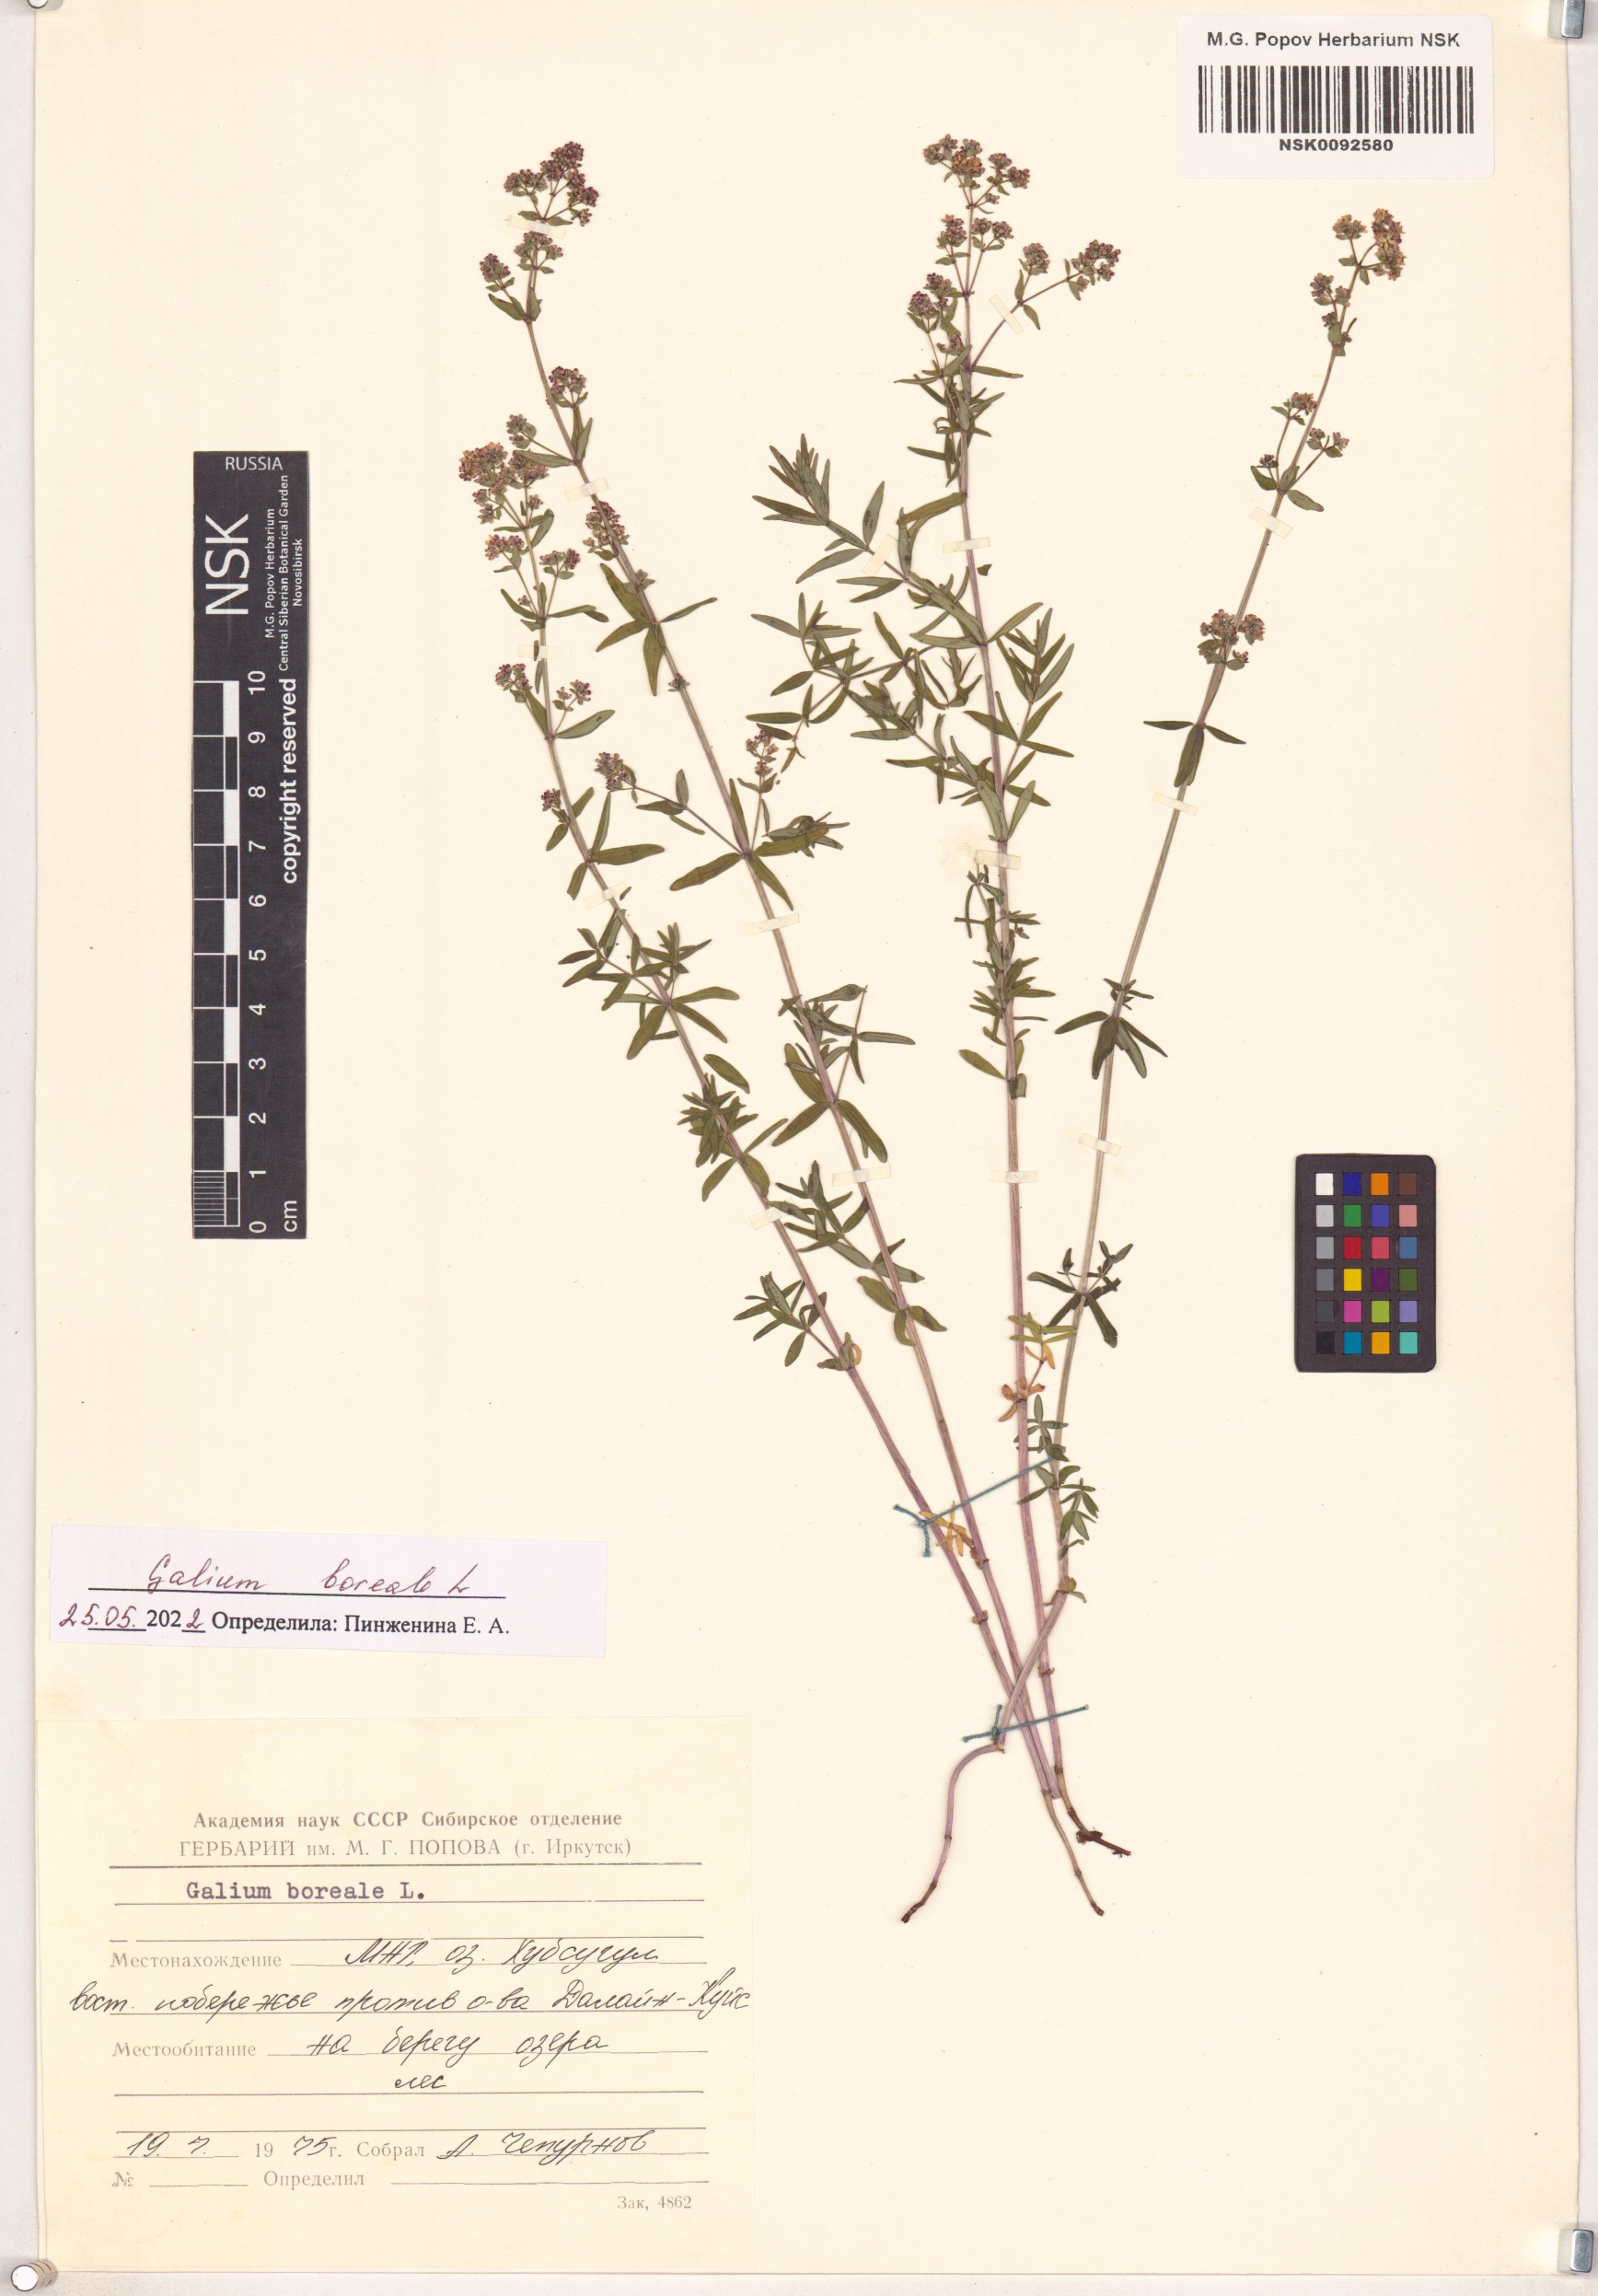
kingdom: Plantae
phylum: Tracheophyta
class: Magnoliopsida
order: Gentianales
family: Rubiaceae
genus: Galium
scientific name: Galium boreale
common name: Northern bedstraw
